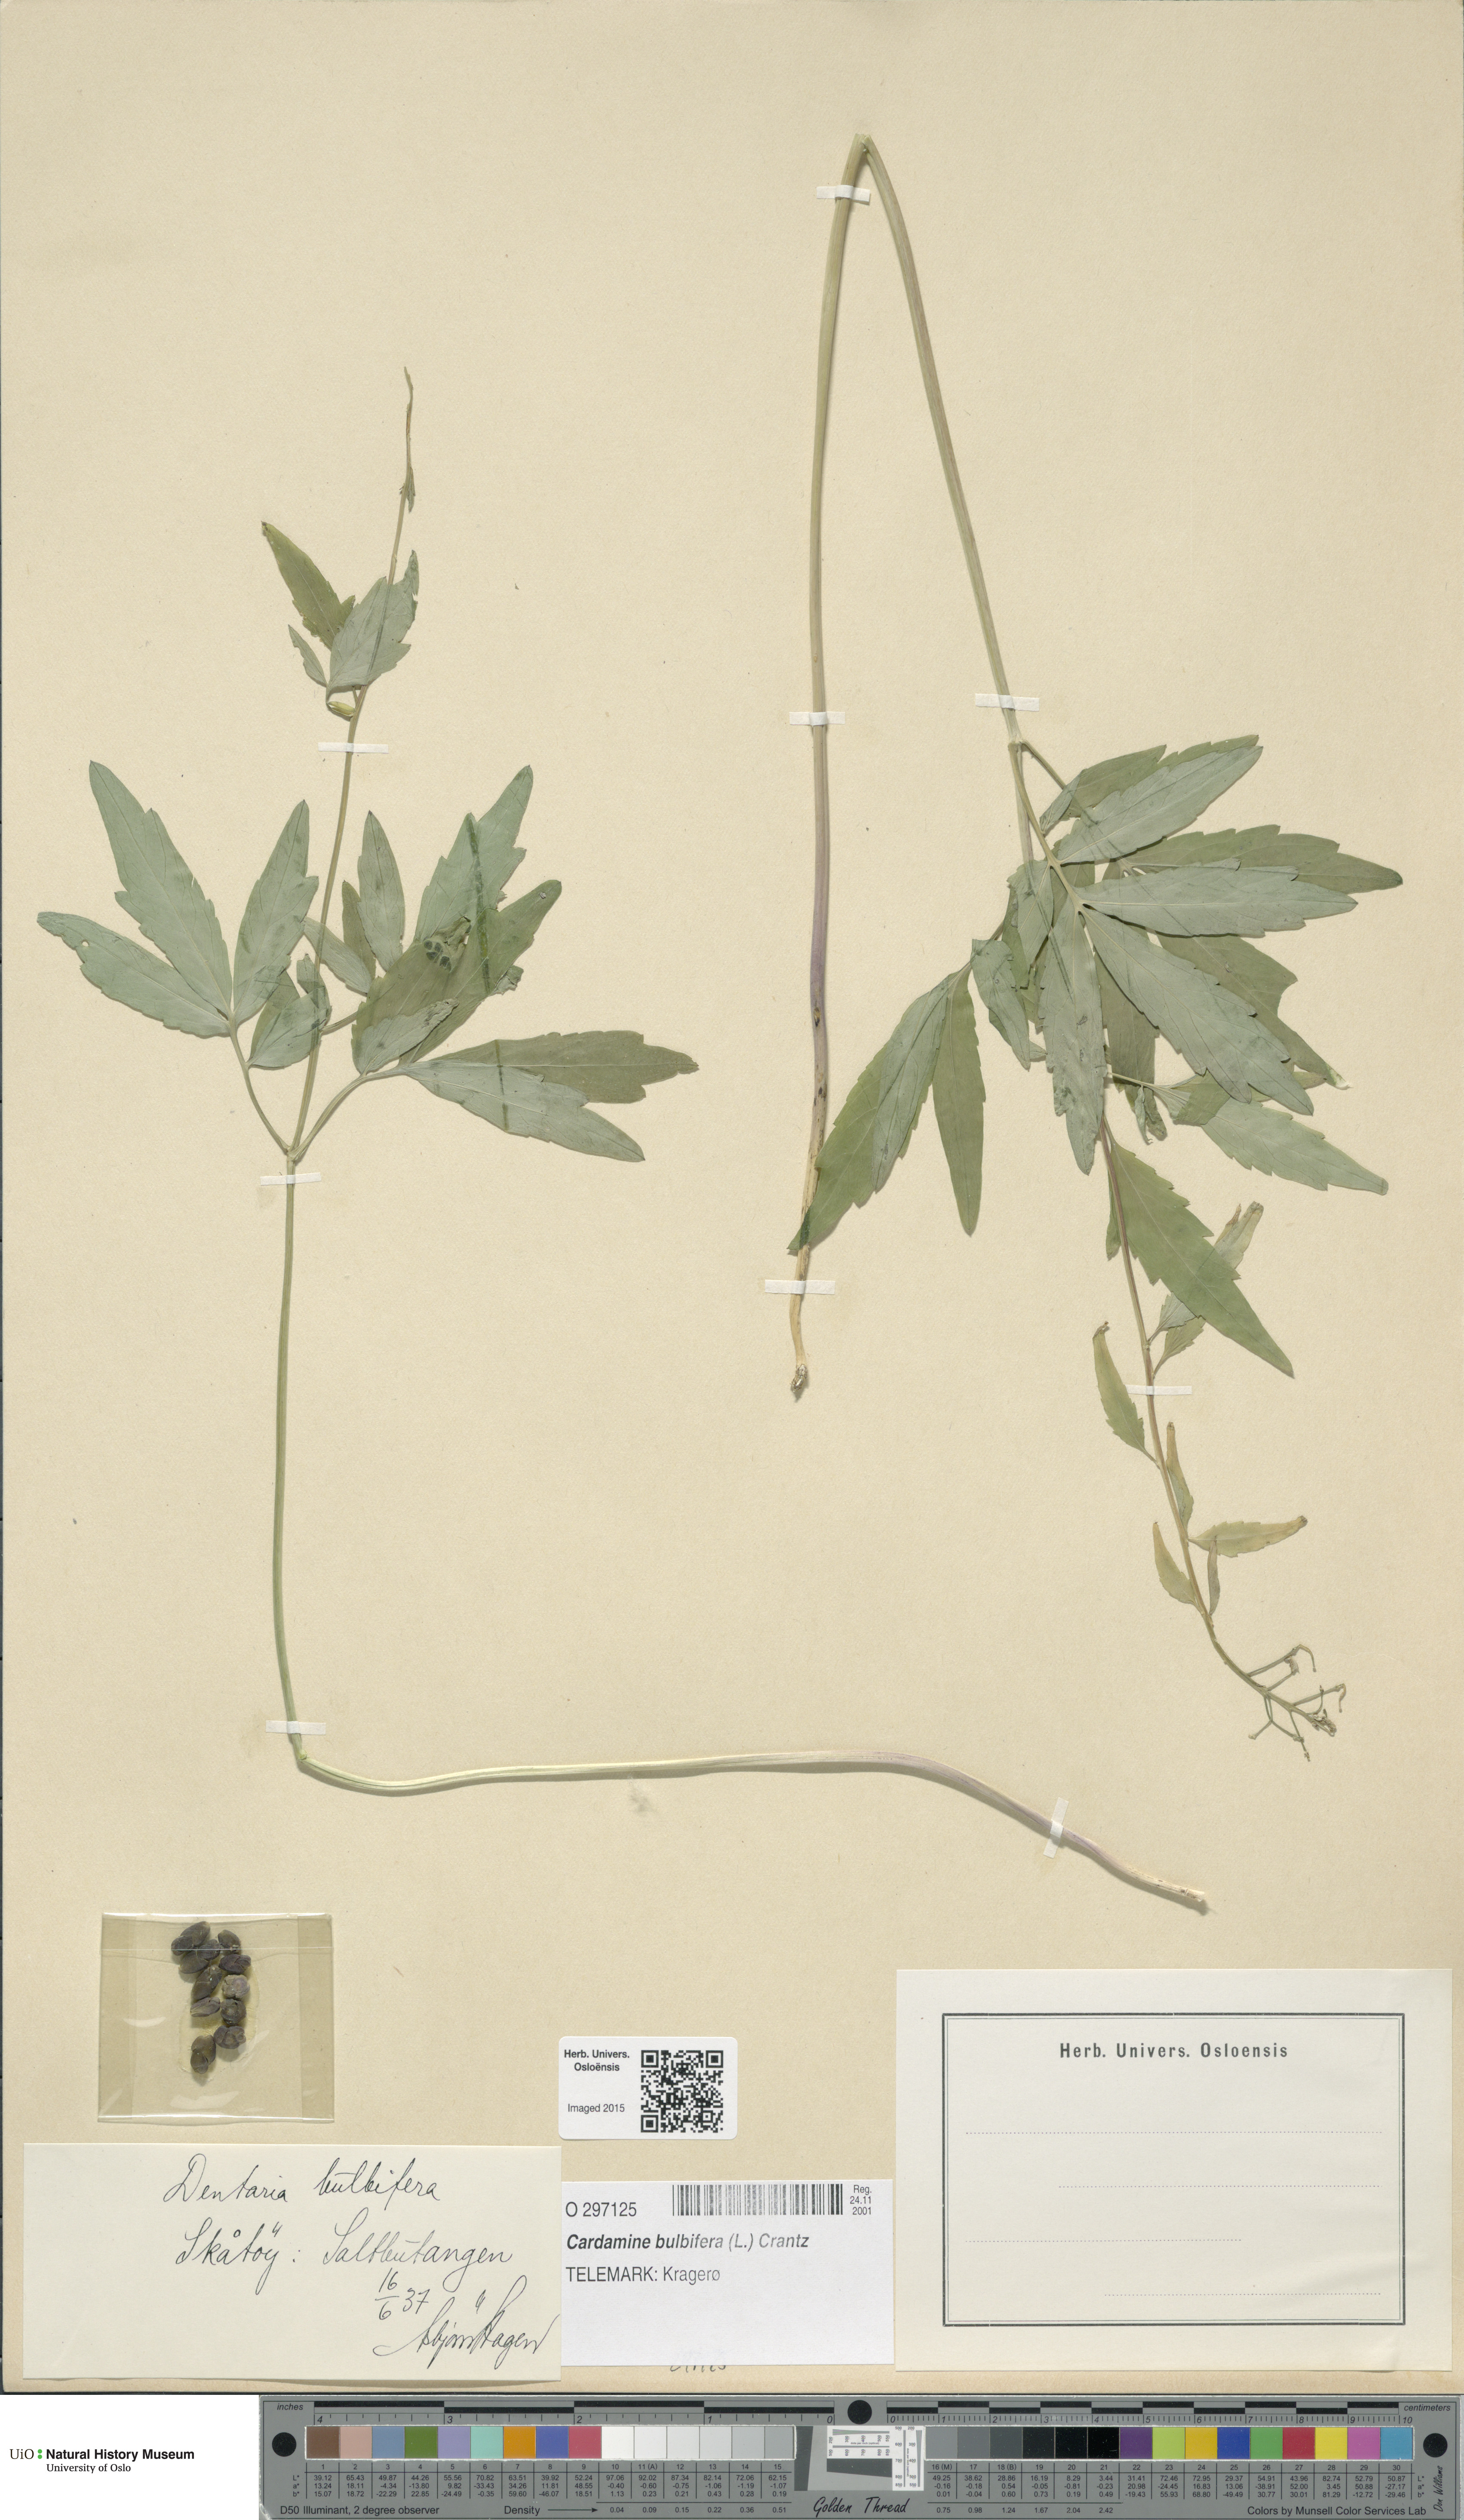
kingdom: Plantae
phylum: Tracheophyta
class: Magnoliopsida
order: Brassicales
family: Brassicaceae
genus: Cardamine
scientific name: Cardamine bulbifera
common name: Coralroot bittercress
